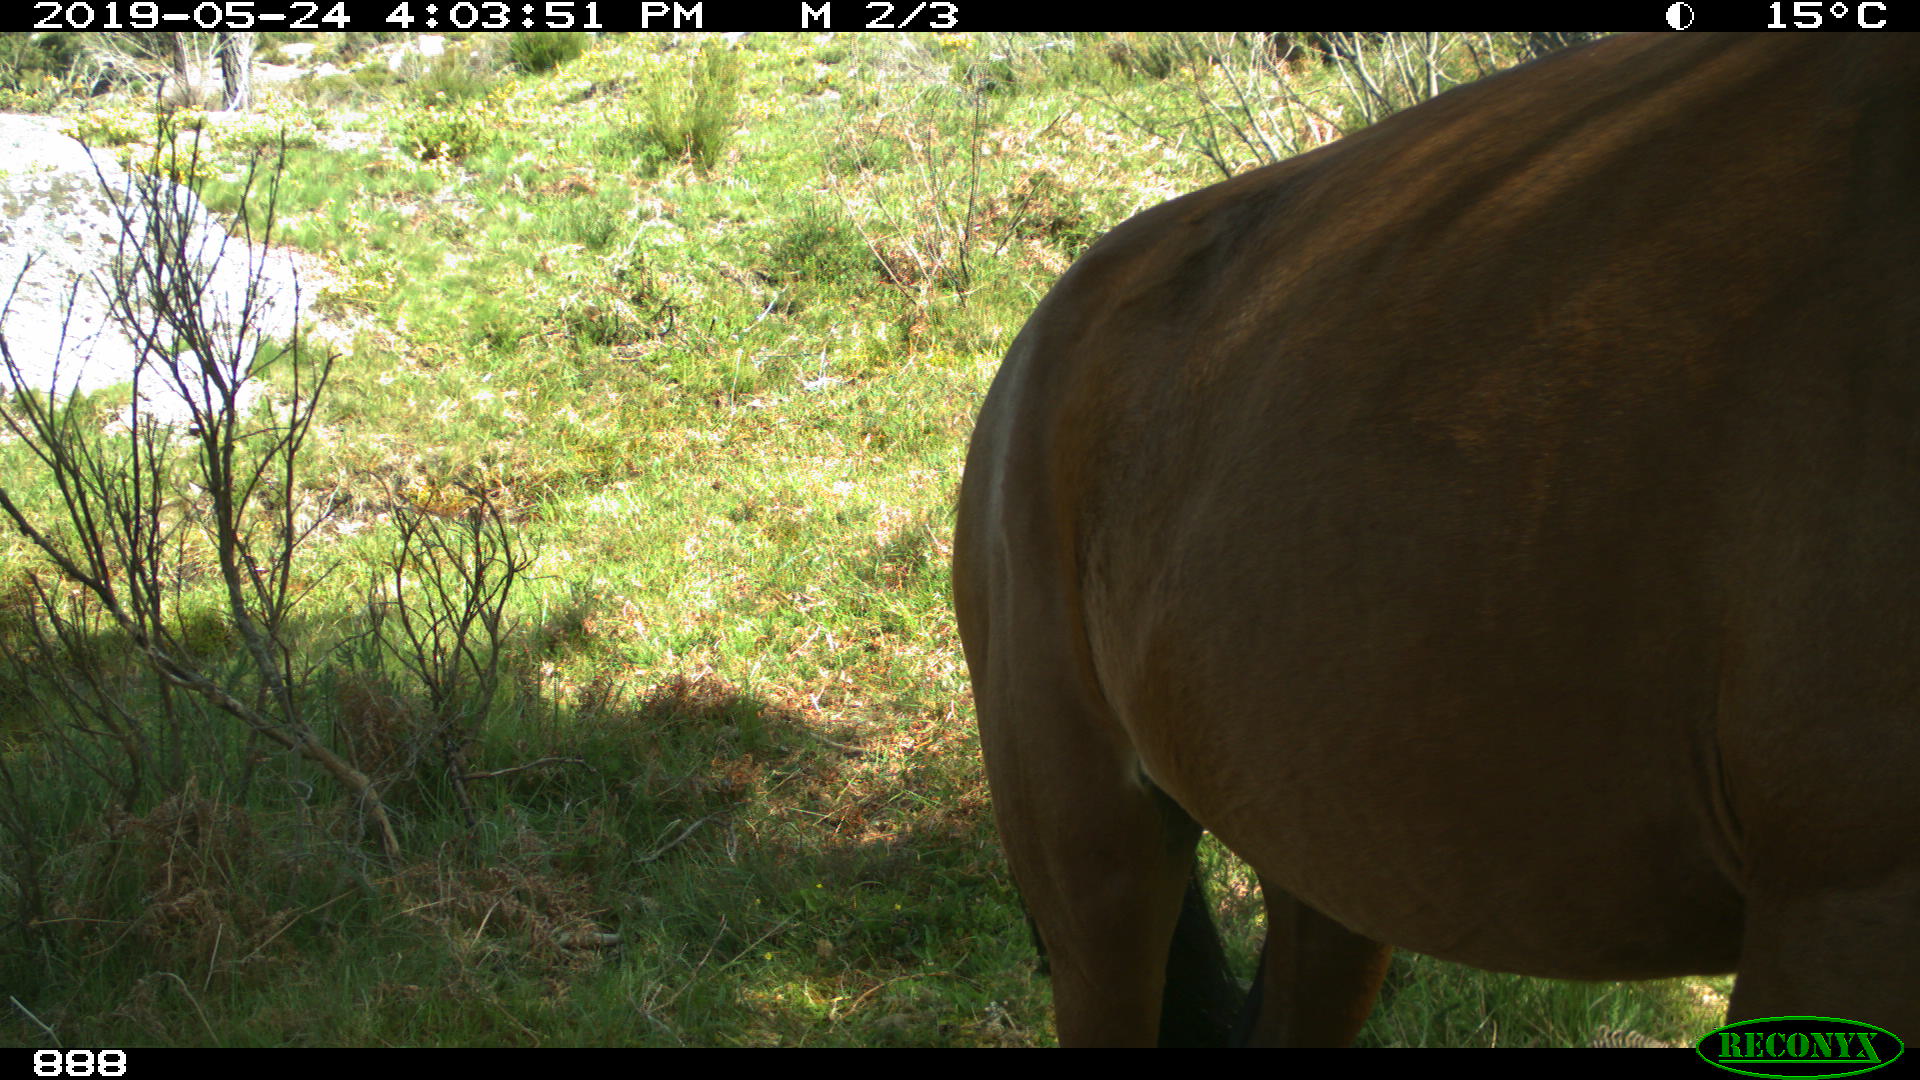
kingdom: Animalia
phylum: Chordata
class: Mammalia
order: Perissodactyla
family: Equidae
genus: Equus
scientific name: Equus caballus
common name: Horse
